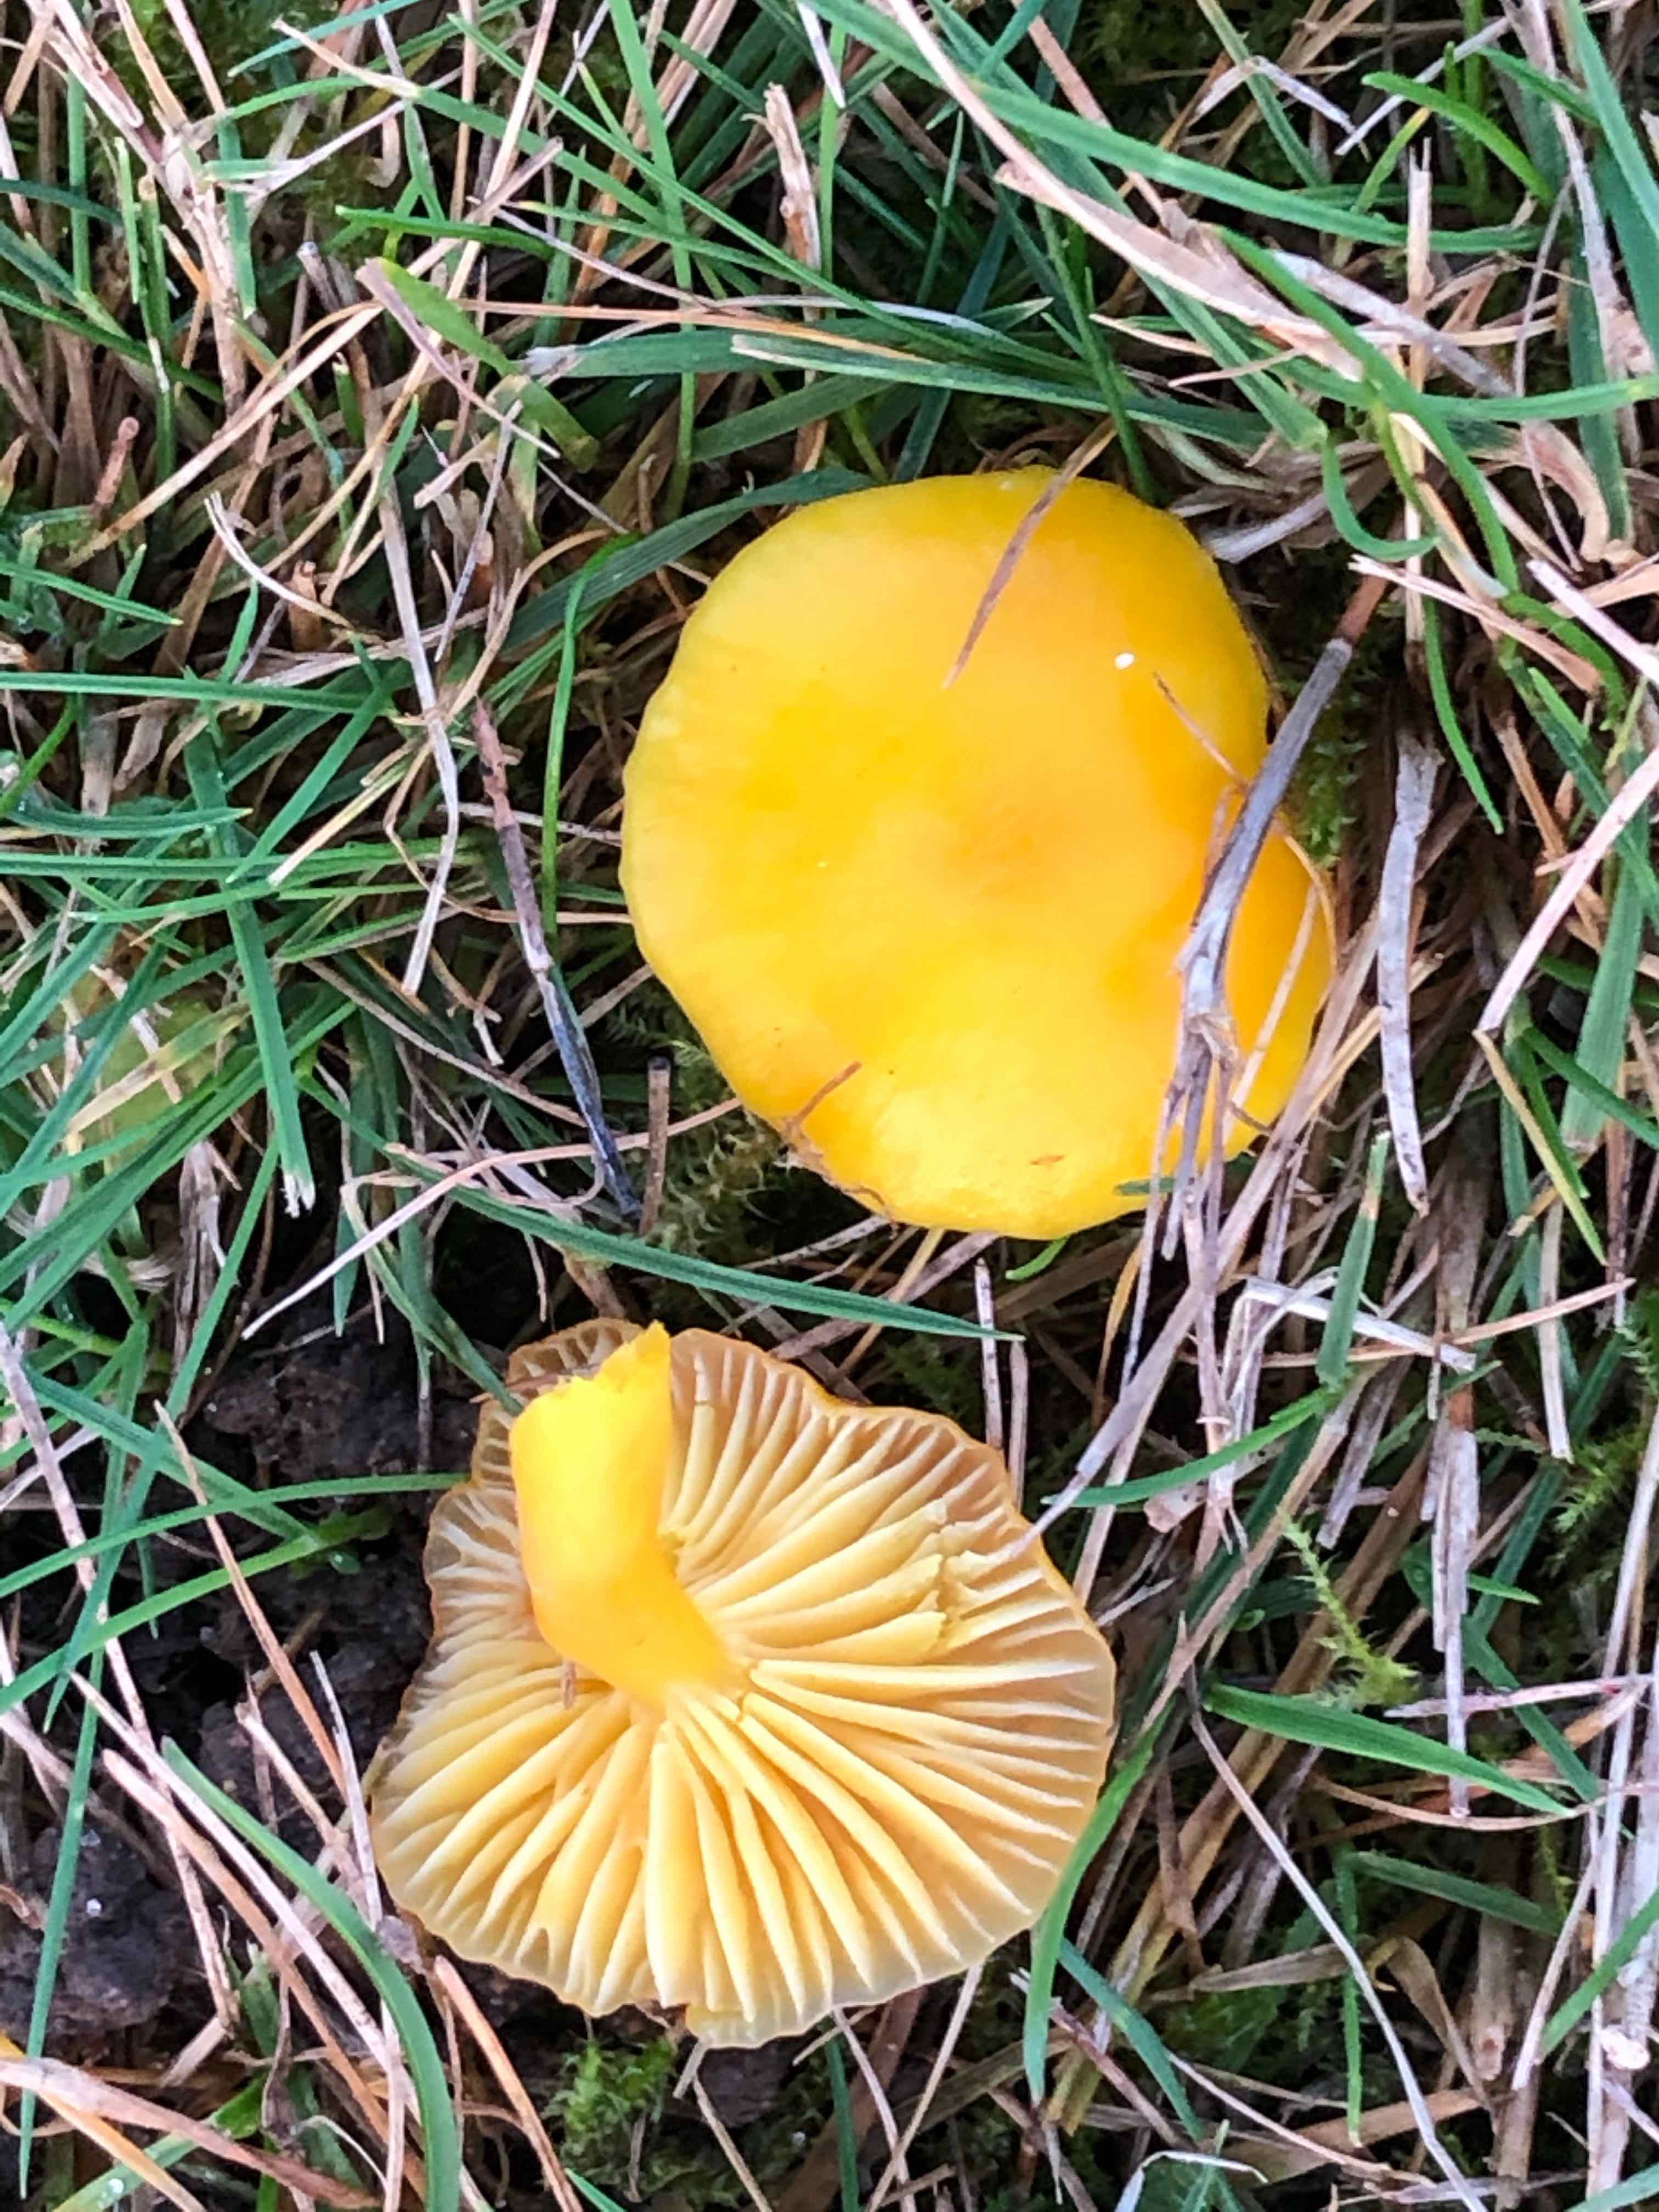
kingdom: Fungi
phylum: Basidiomycota
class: Agaricomycetes
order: Agaricales
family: Hygrophoraceae
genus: Hygrocybe
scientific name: Hygrocybe ceracea
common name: voksgul vokshat
